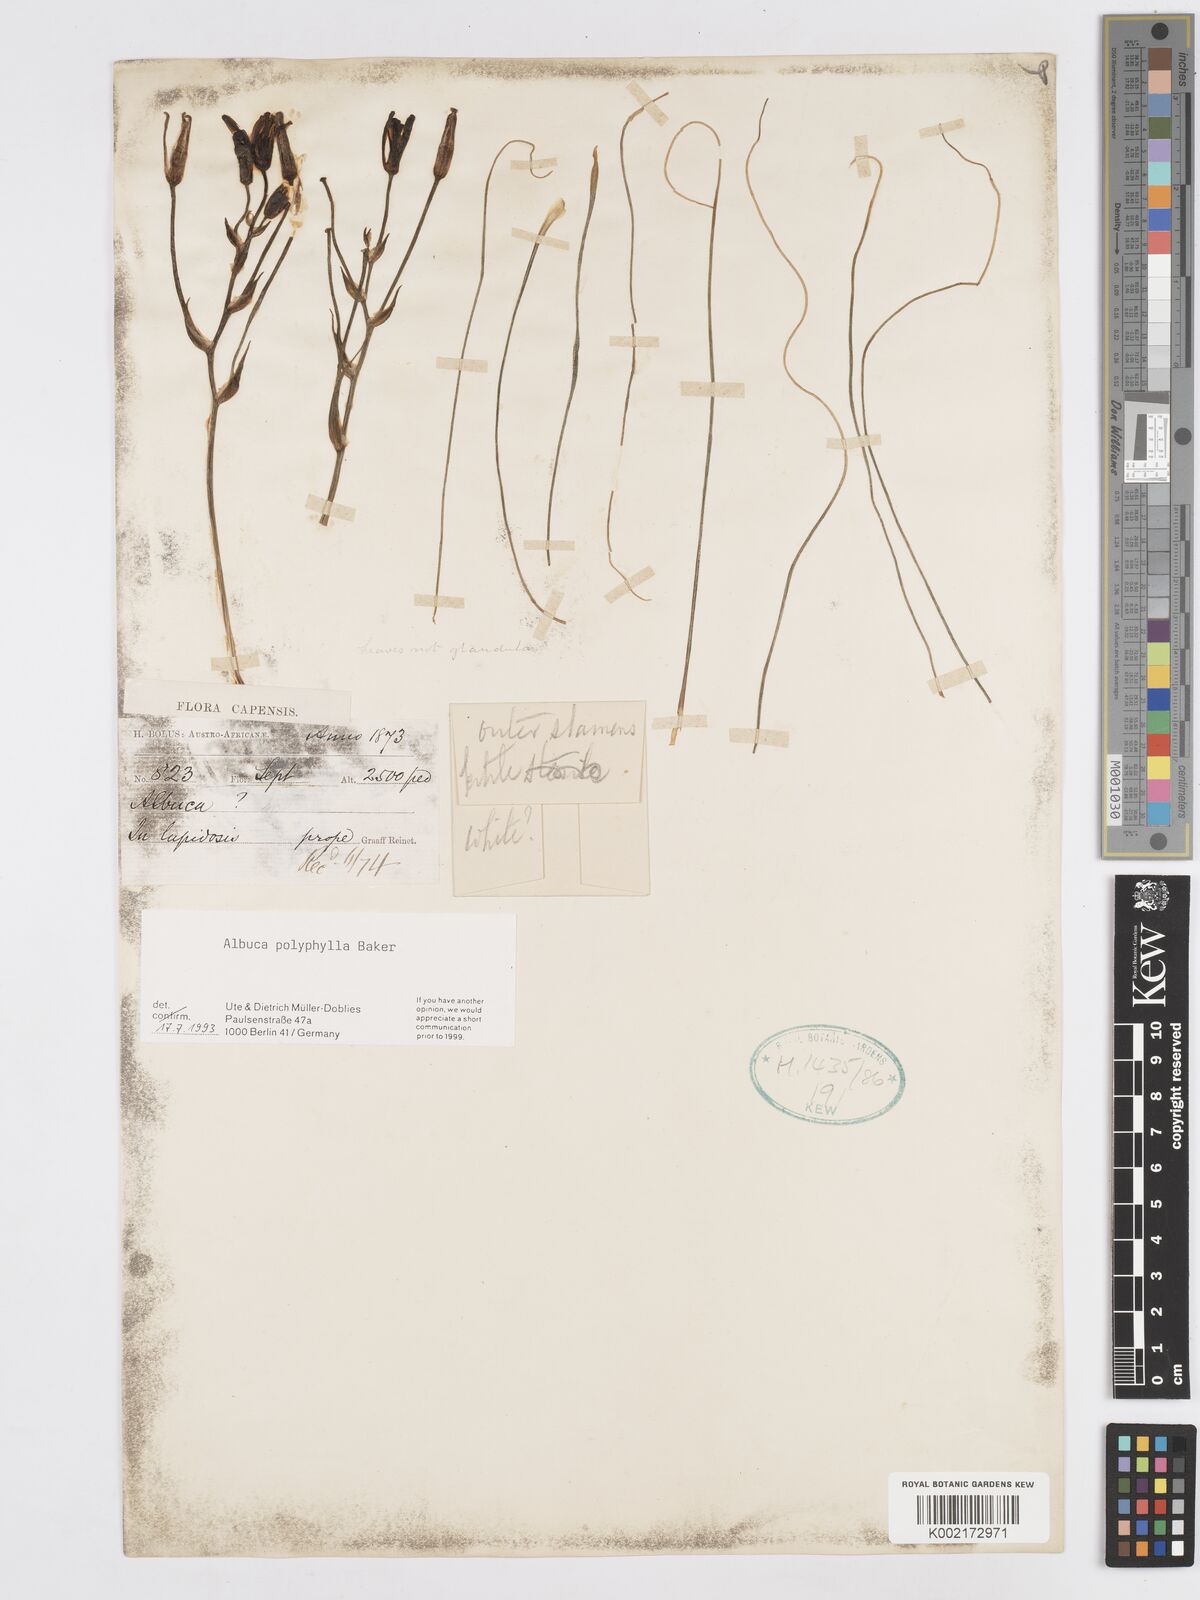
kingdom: Plantae
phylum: Tracheophyta
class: Liliopsida
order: Asparagales
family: Asparagaceae
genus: Albuca
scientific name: Albuca polyphylla
